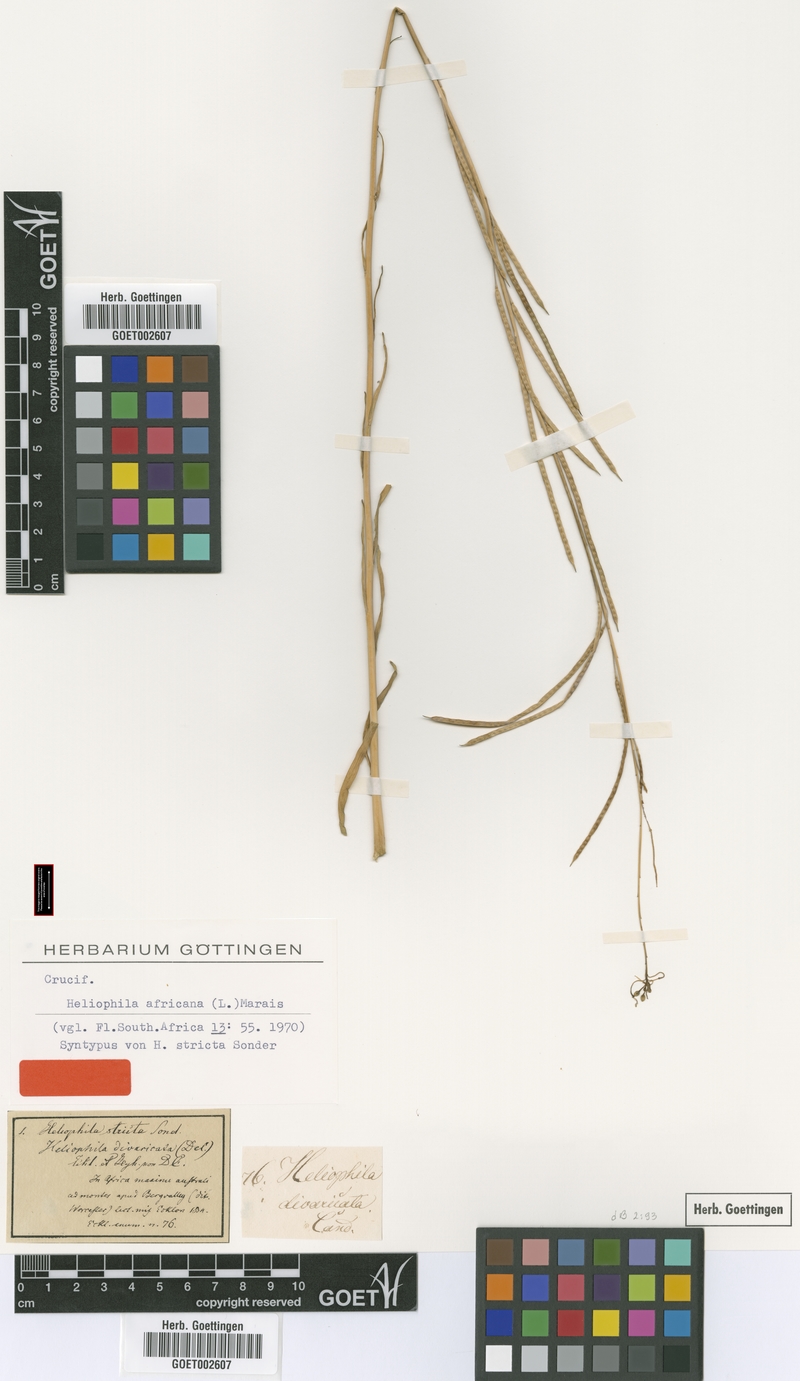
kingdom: Plantae
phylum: Tracheophyta
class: Magnoliopsida
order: Brassicales
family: Brassicaceae
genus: Heliophila
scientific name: Heliophila africana
